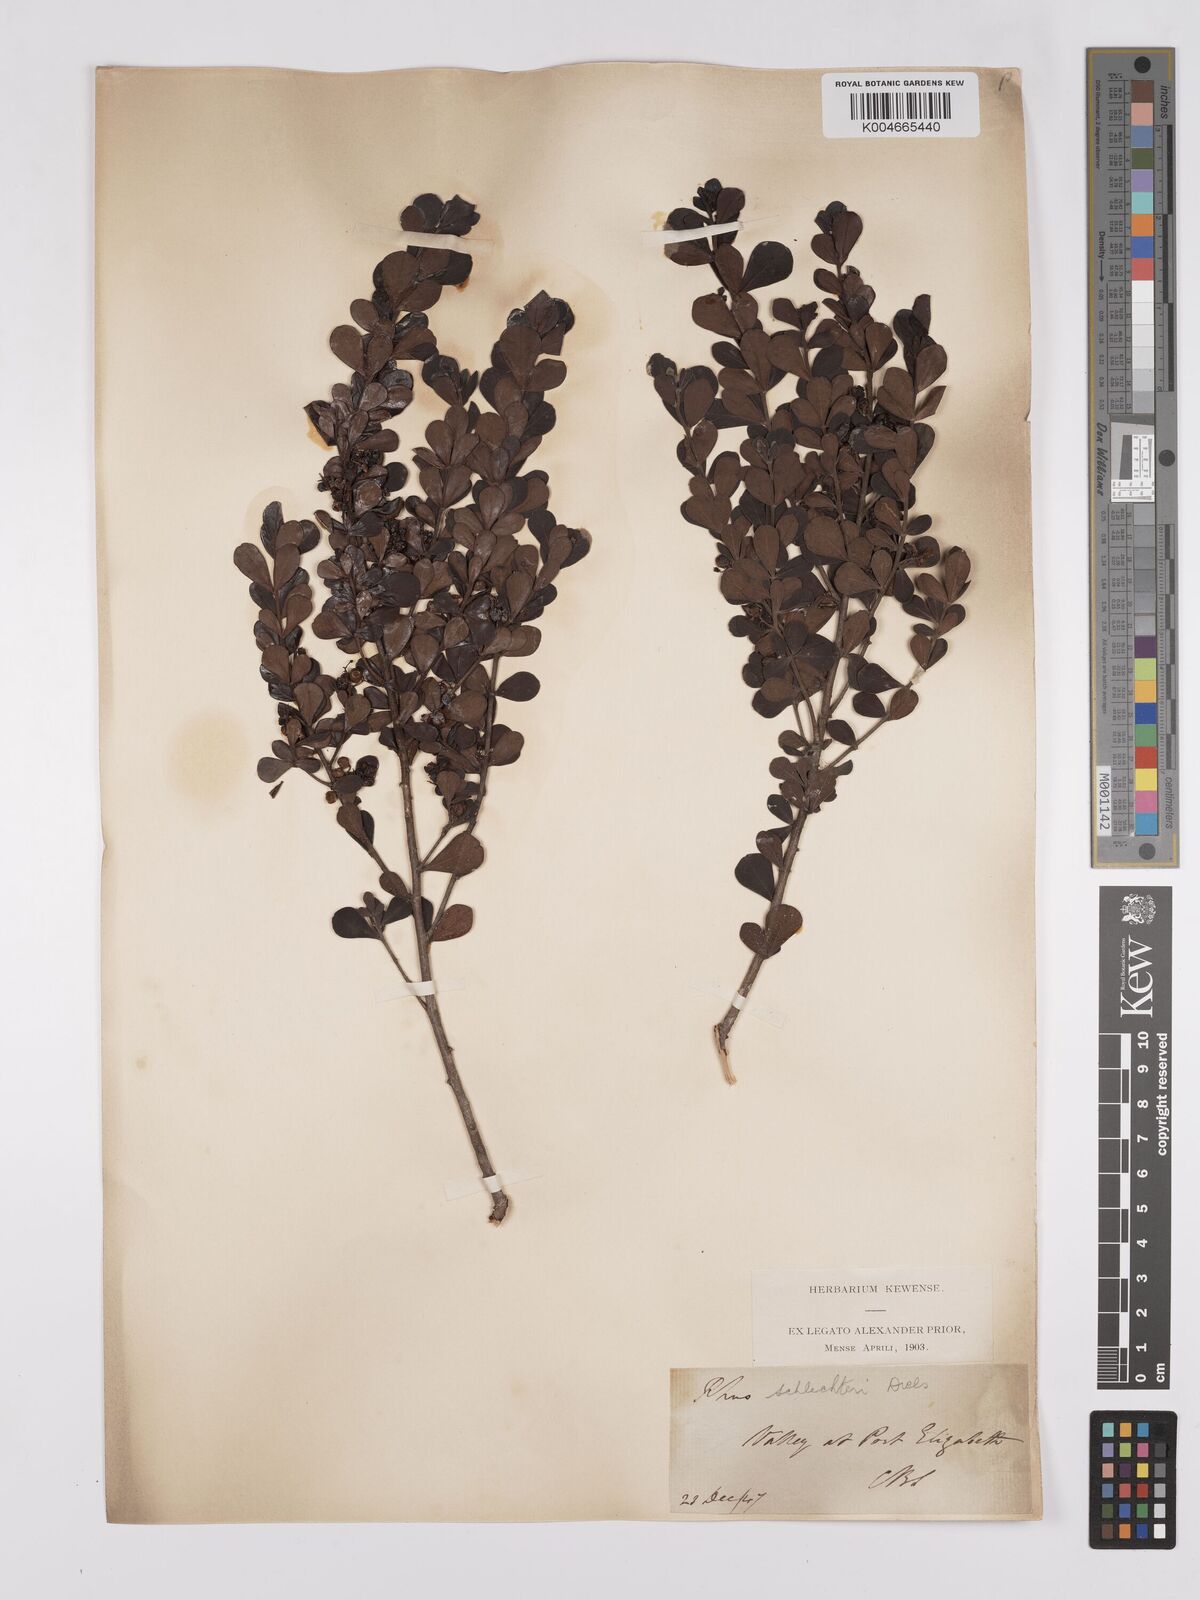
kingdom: Plantae
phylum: Tracheophyta
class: Magnoliopsida
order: Sapindales
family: Anacardiaceae
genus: Searsia
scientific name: Searsia lucida
